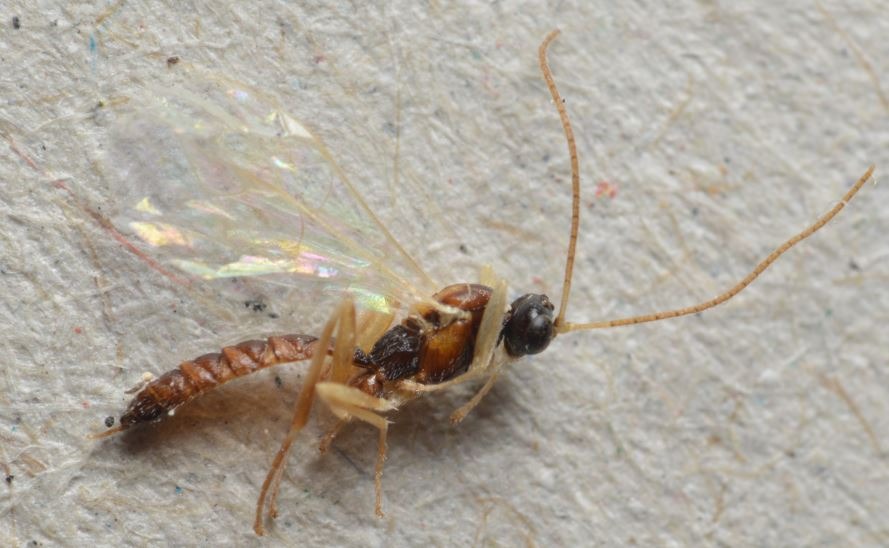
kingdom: Animalia
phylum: Arthropoda
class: Insecta
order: Hymenoptera
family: Ichneumonidae
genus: Zatypota
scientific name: Zatypota bohemani
